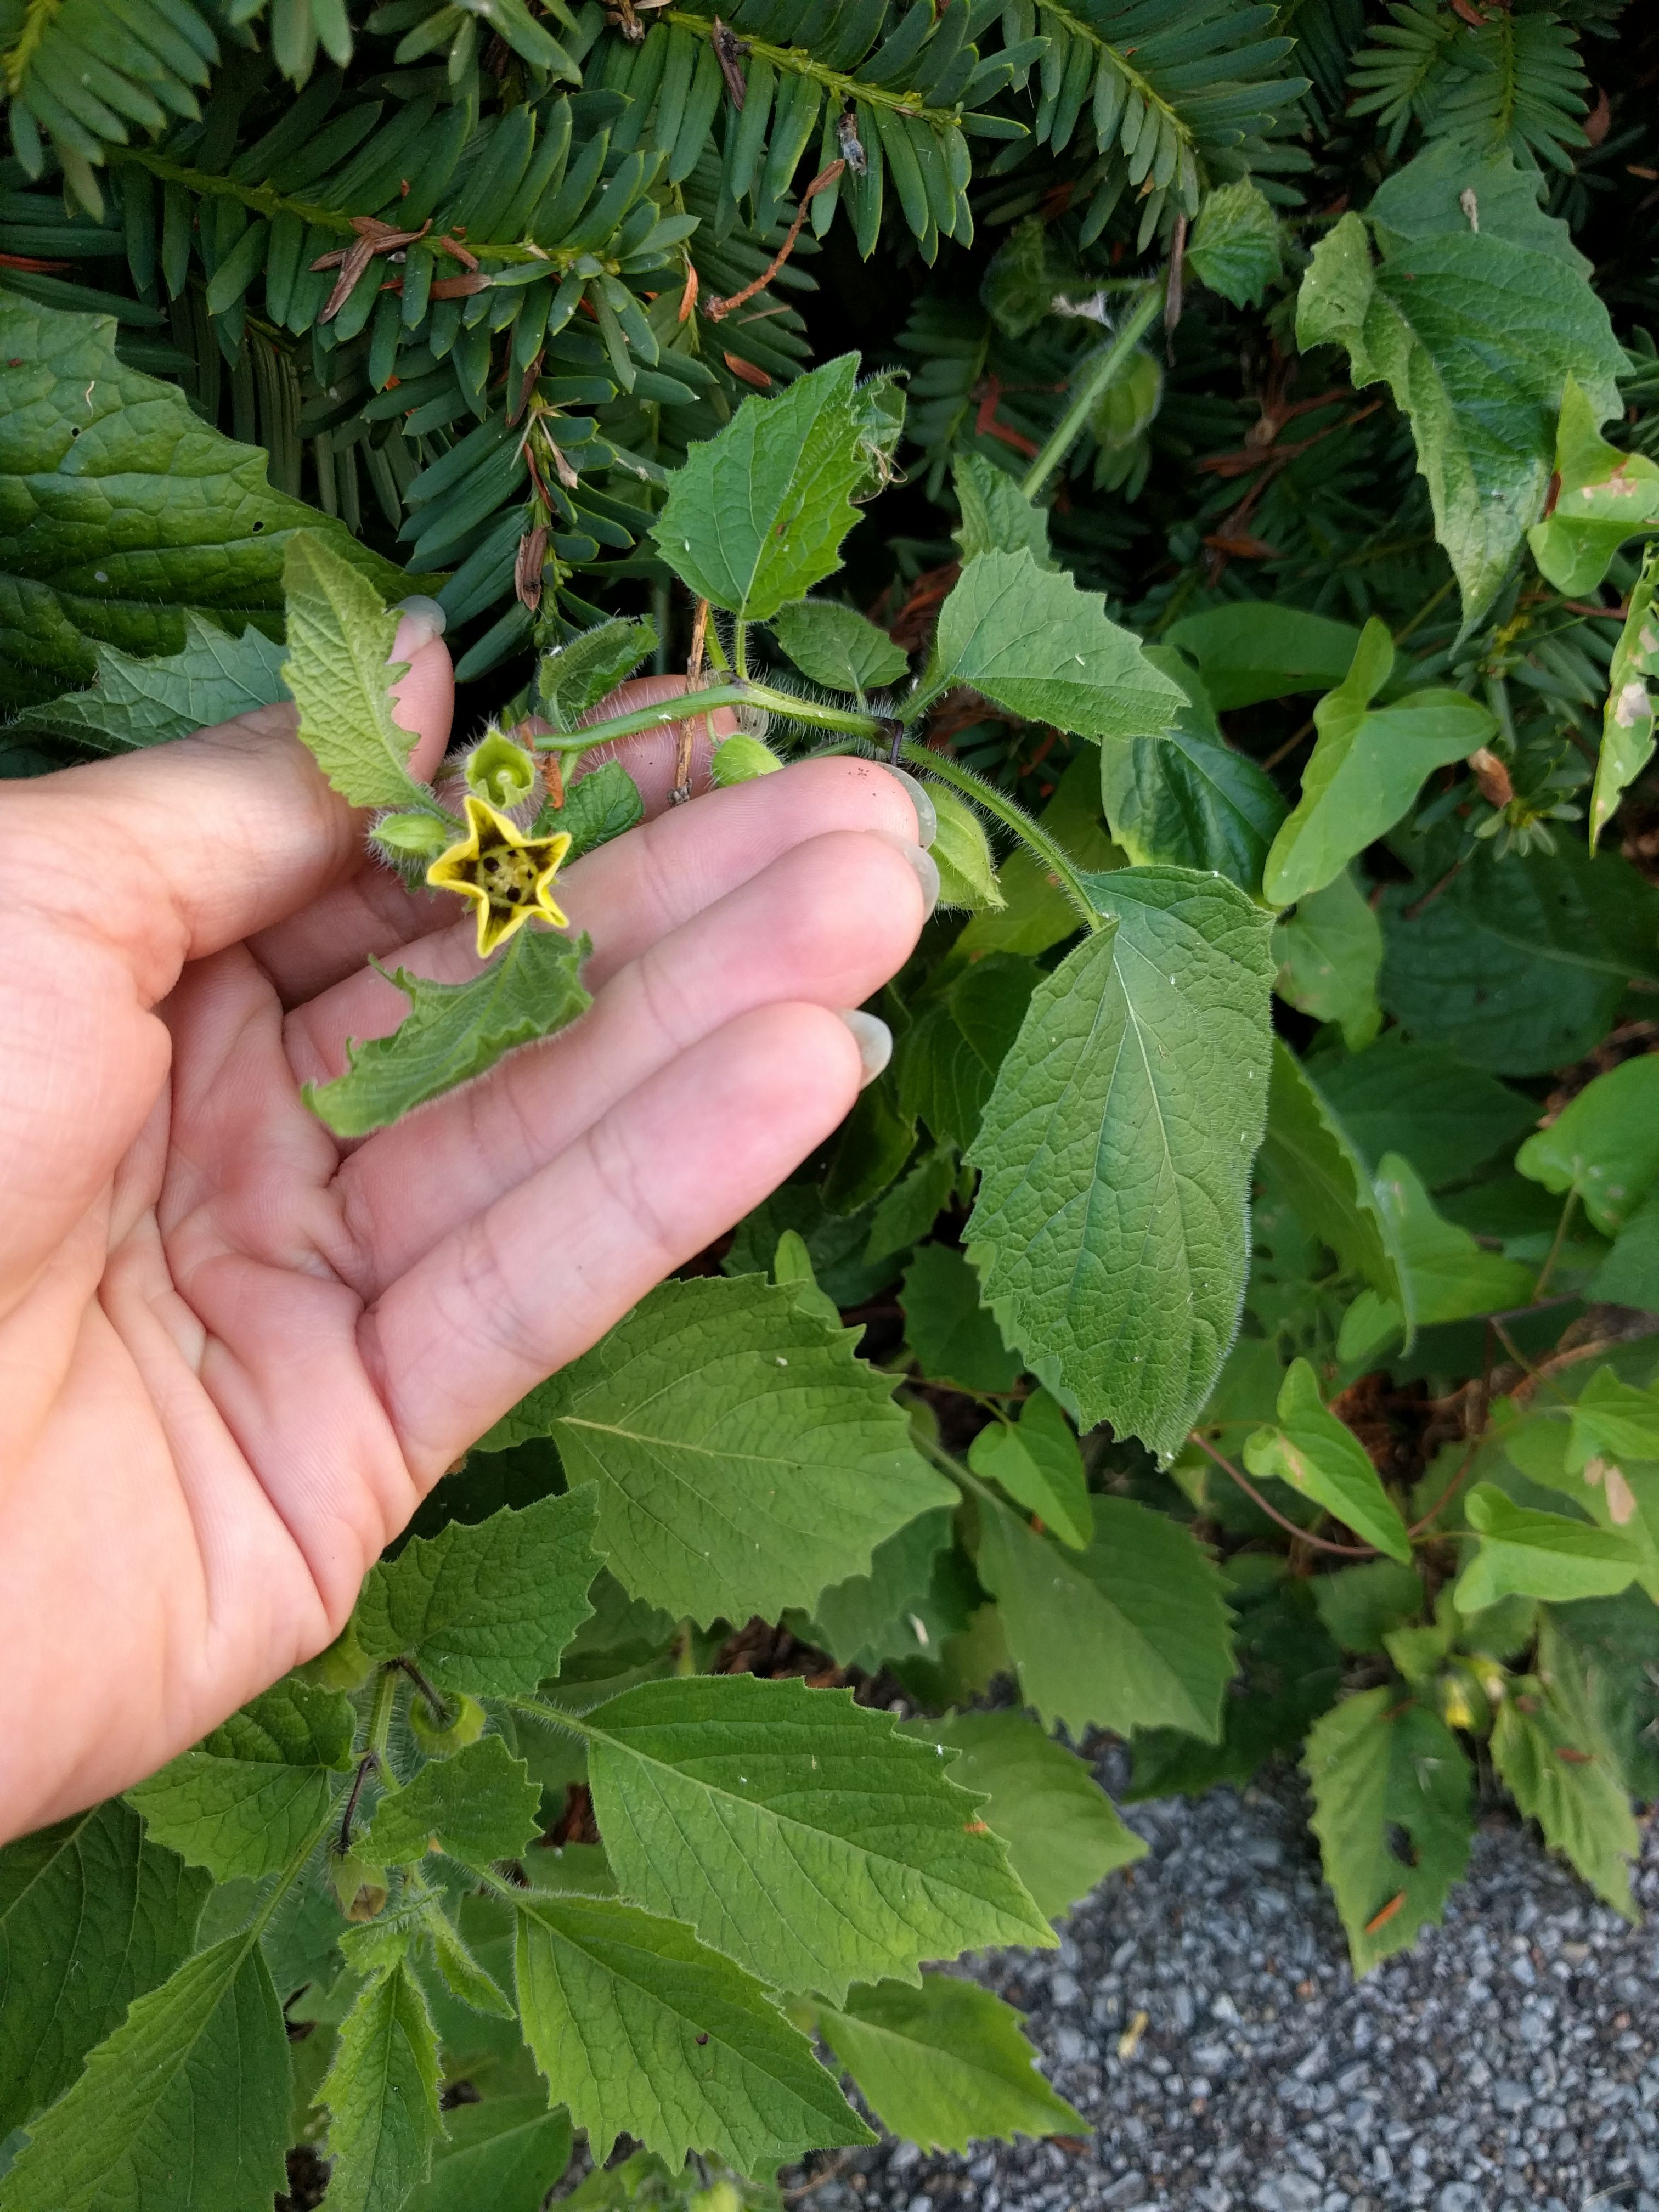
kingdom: Plantae
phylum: Tracheophyta
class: Magnoliopsida
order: Solanales
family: Solanaceae
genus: Physalis
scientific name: Physalis heterophylla
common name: Clammy ground-cherry
